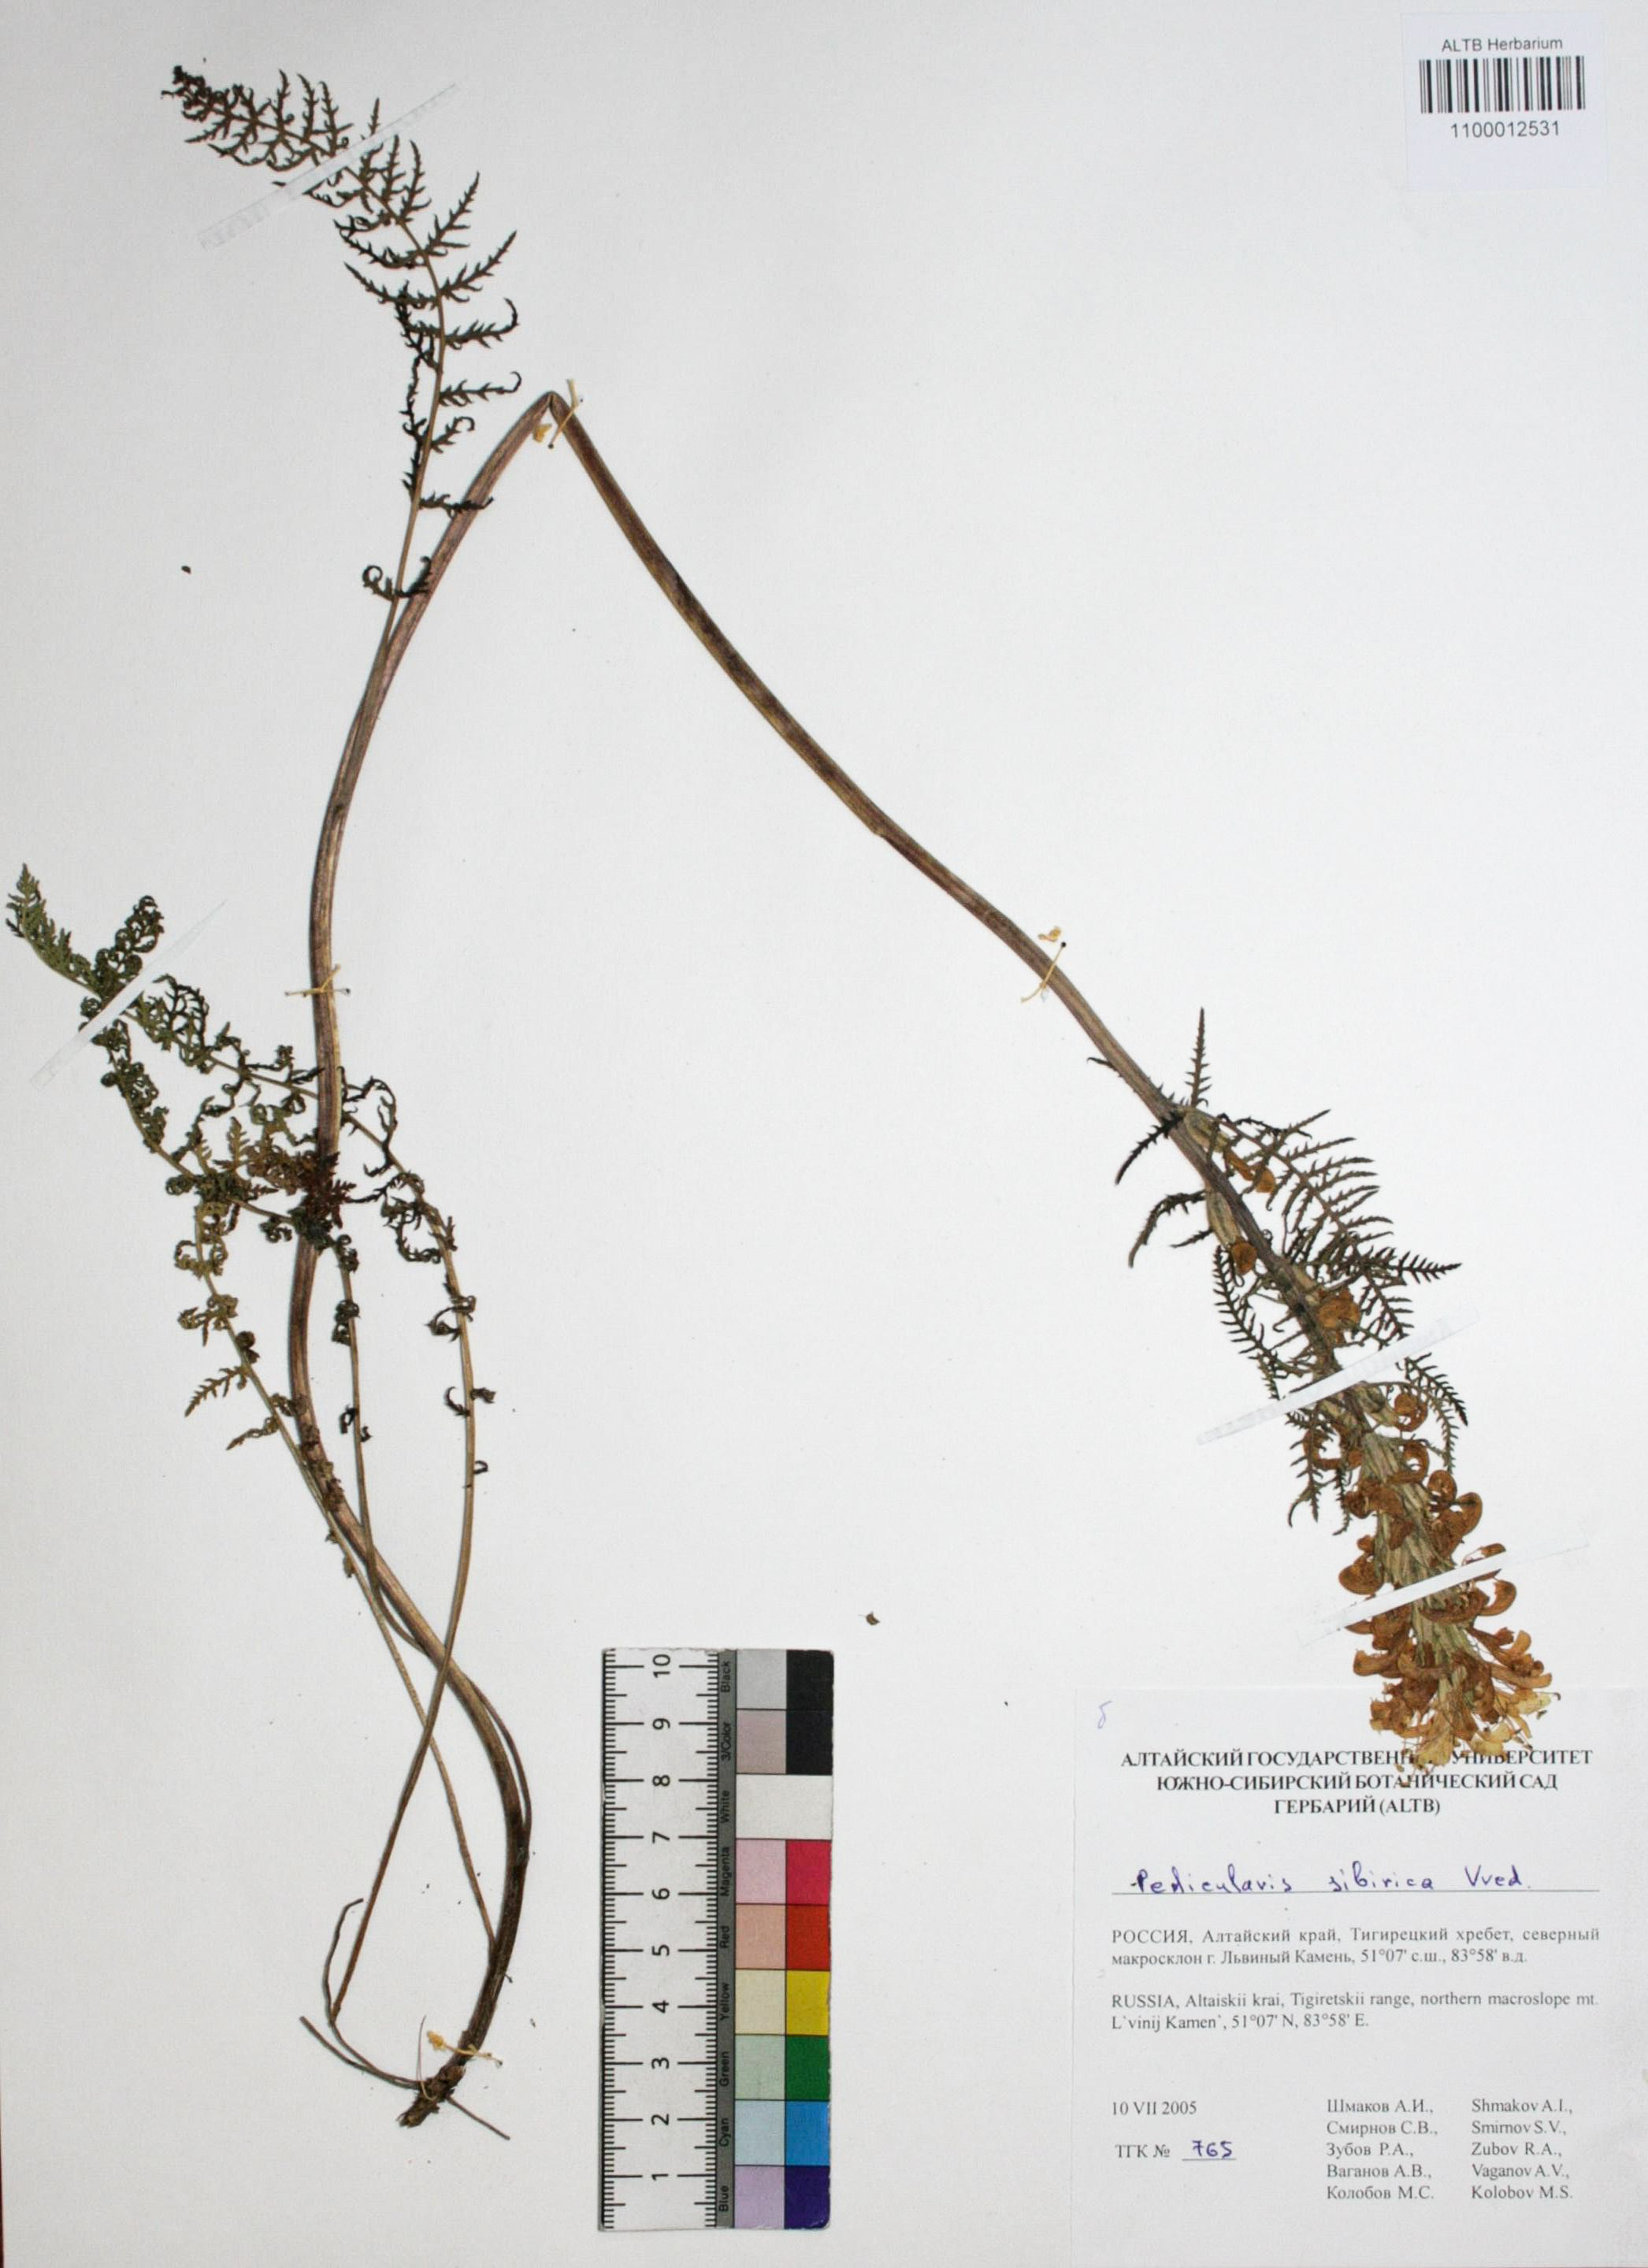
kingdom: Plantae
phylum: Tracheophyta
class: Magnoliopsida
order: Lamiales
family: Orobanchaceae
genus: Pedicularis
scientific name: Pedicularis sibirica
